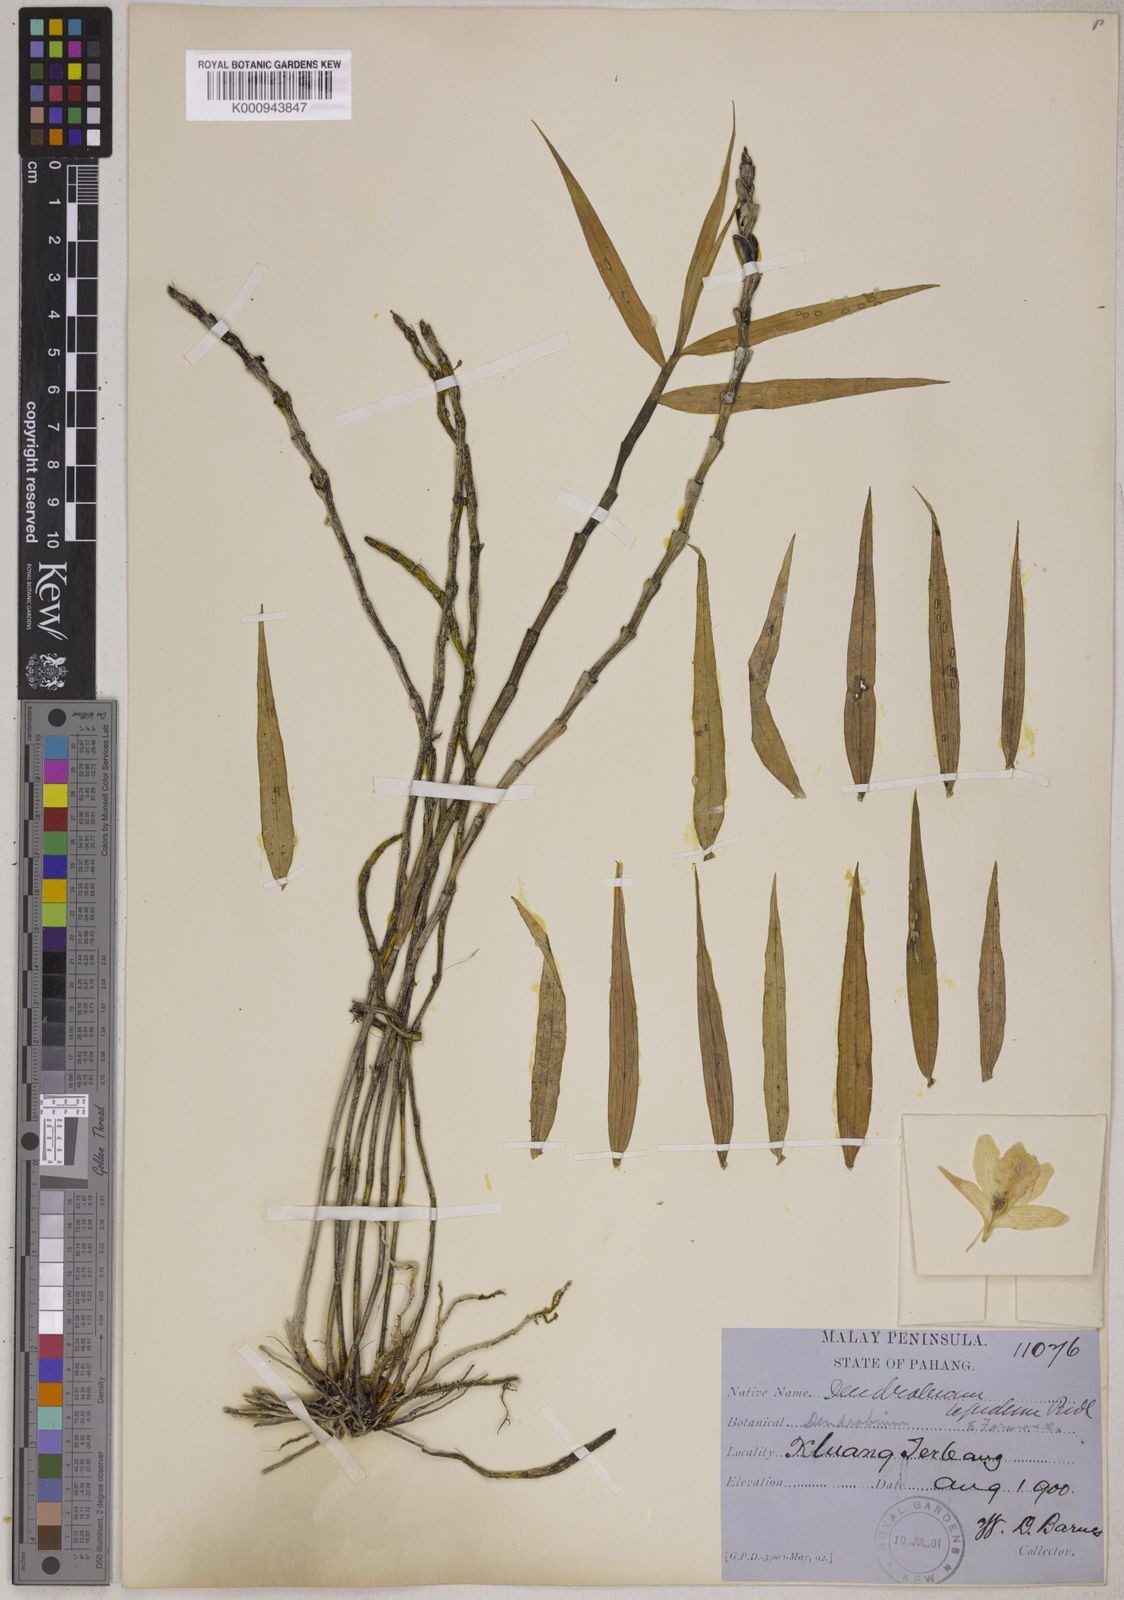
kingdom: Plantae
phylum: Tracheophyta
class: Liliopsida
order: Asparagales
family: Orchidaceae
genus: Dendrobium
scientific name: Dendrobium hughii
